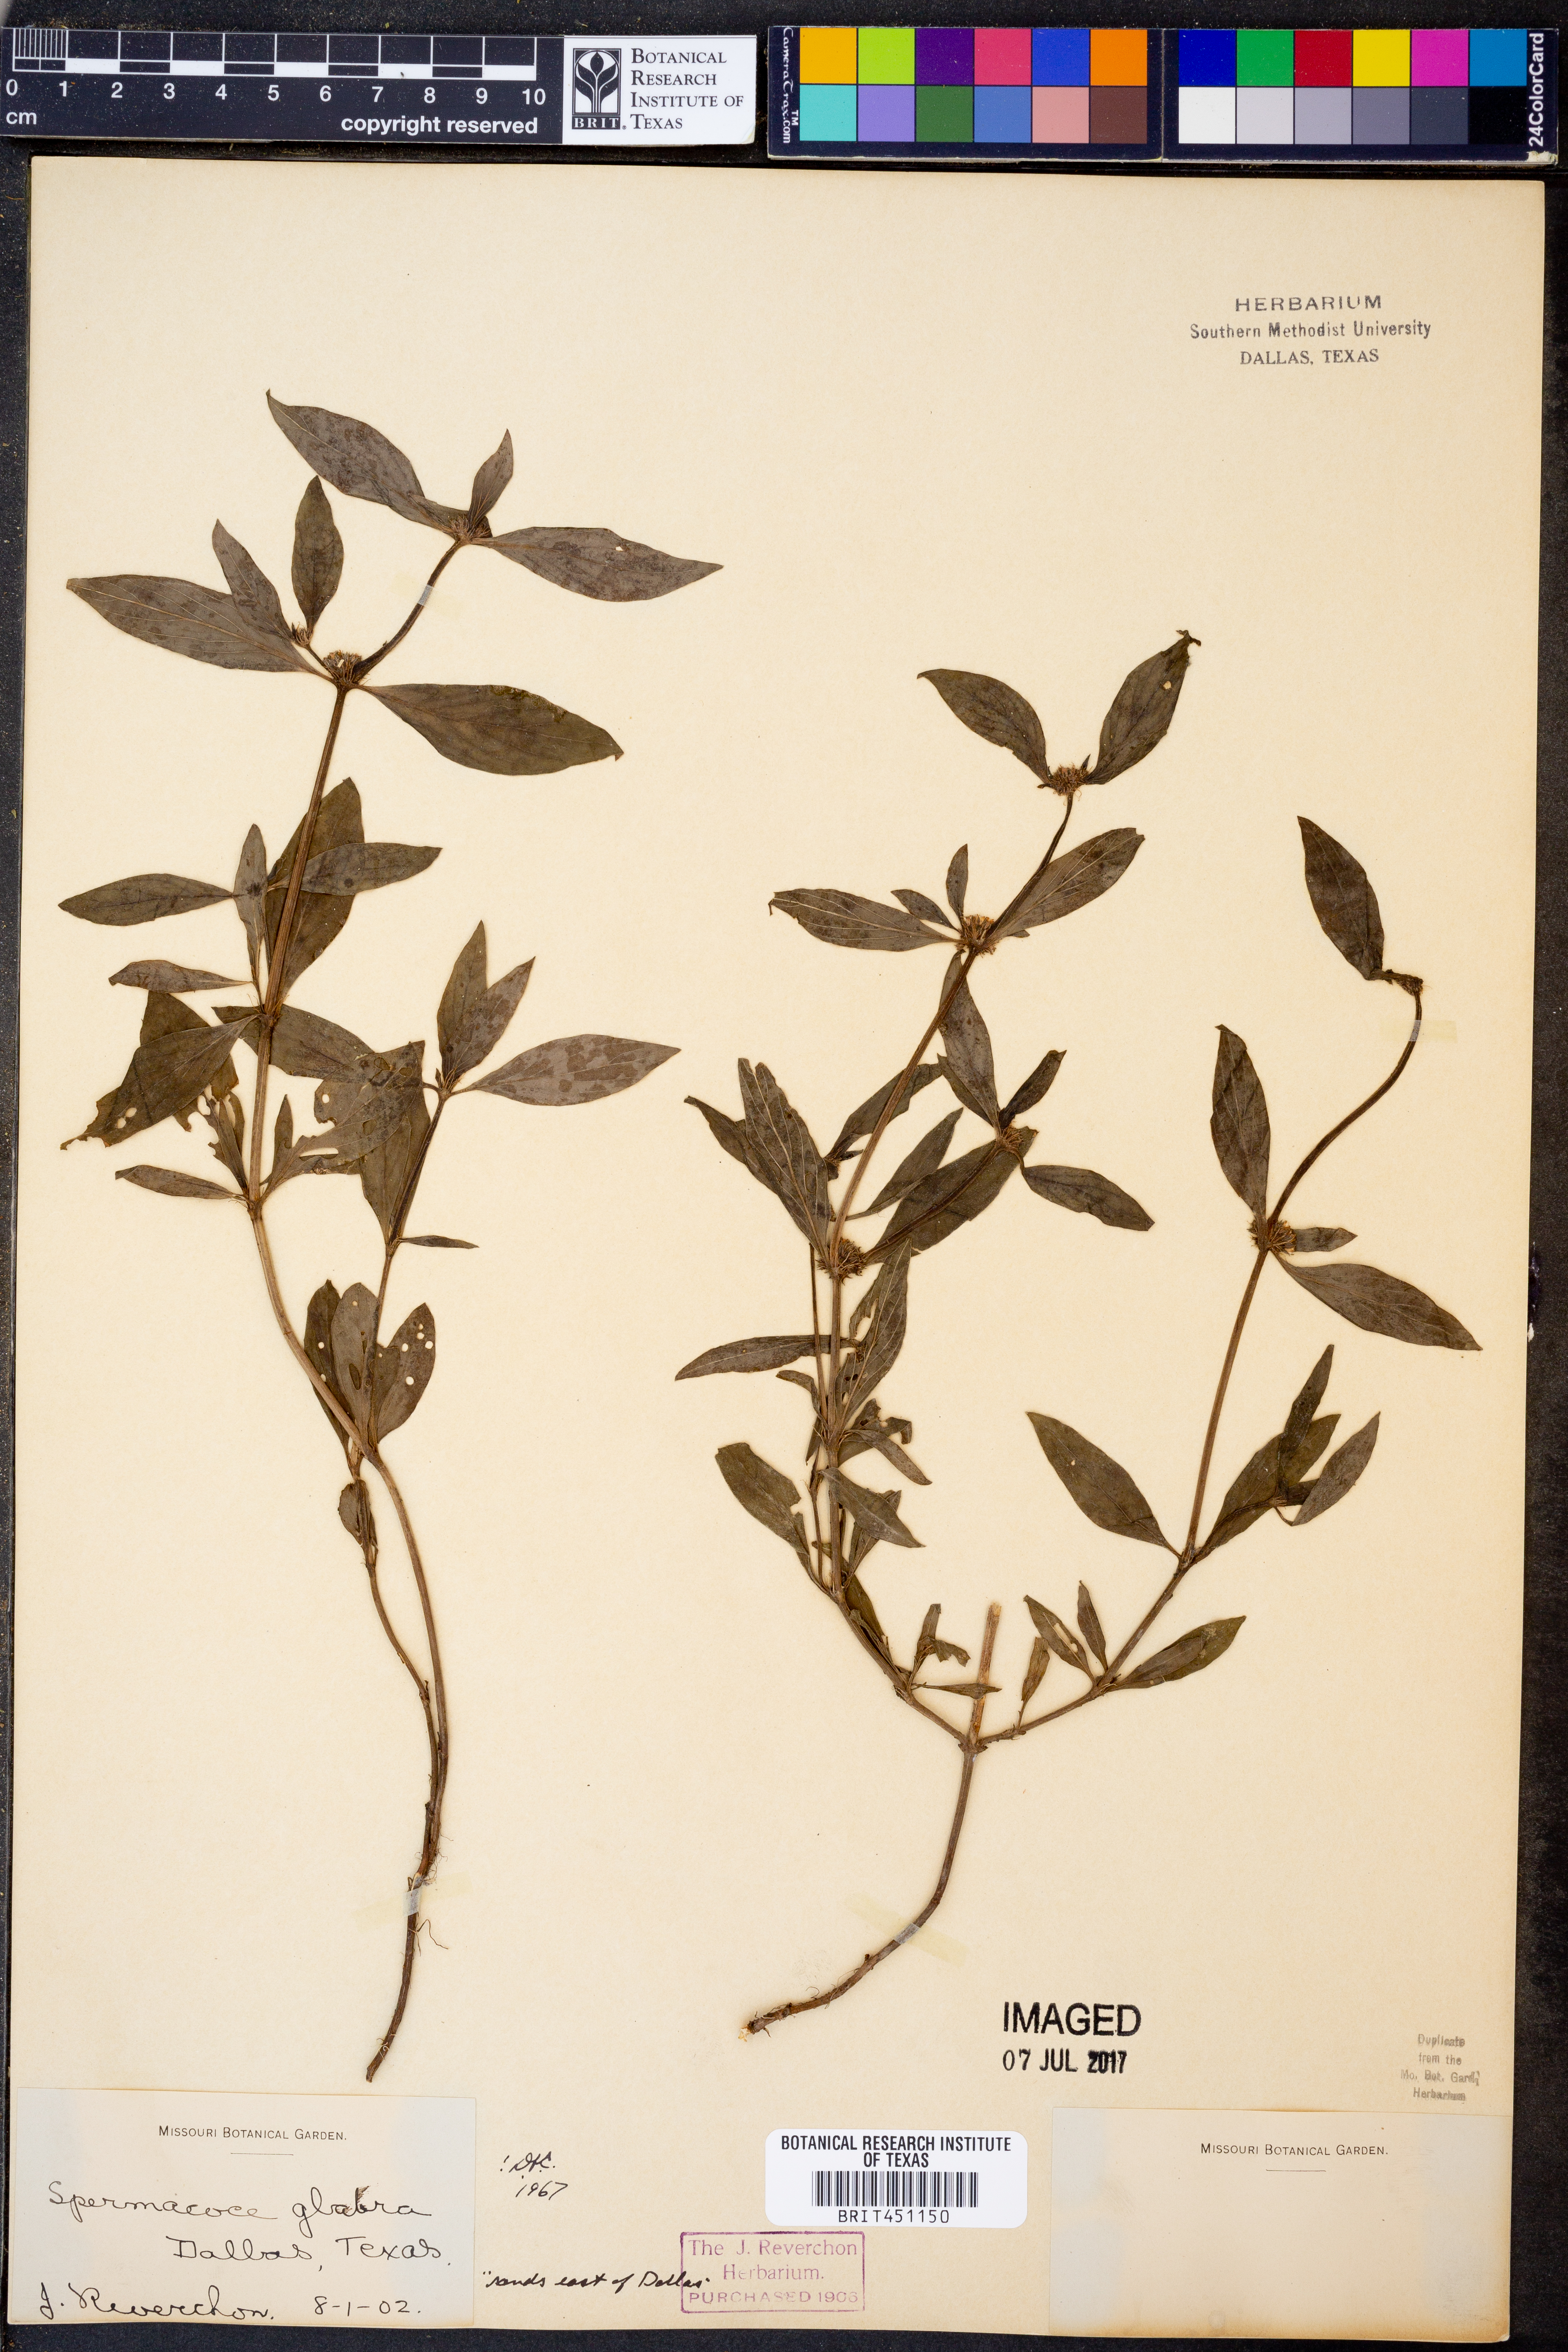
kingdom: Plantae
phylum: Tracheophyta
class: Magnoliopsida
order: Gentianales
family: Rubiaceae
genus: Spermacoce
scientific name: Spermacoce glabra
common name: Smooth buttonweed
